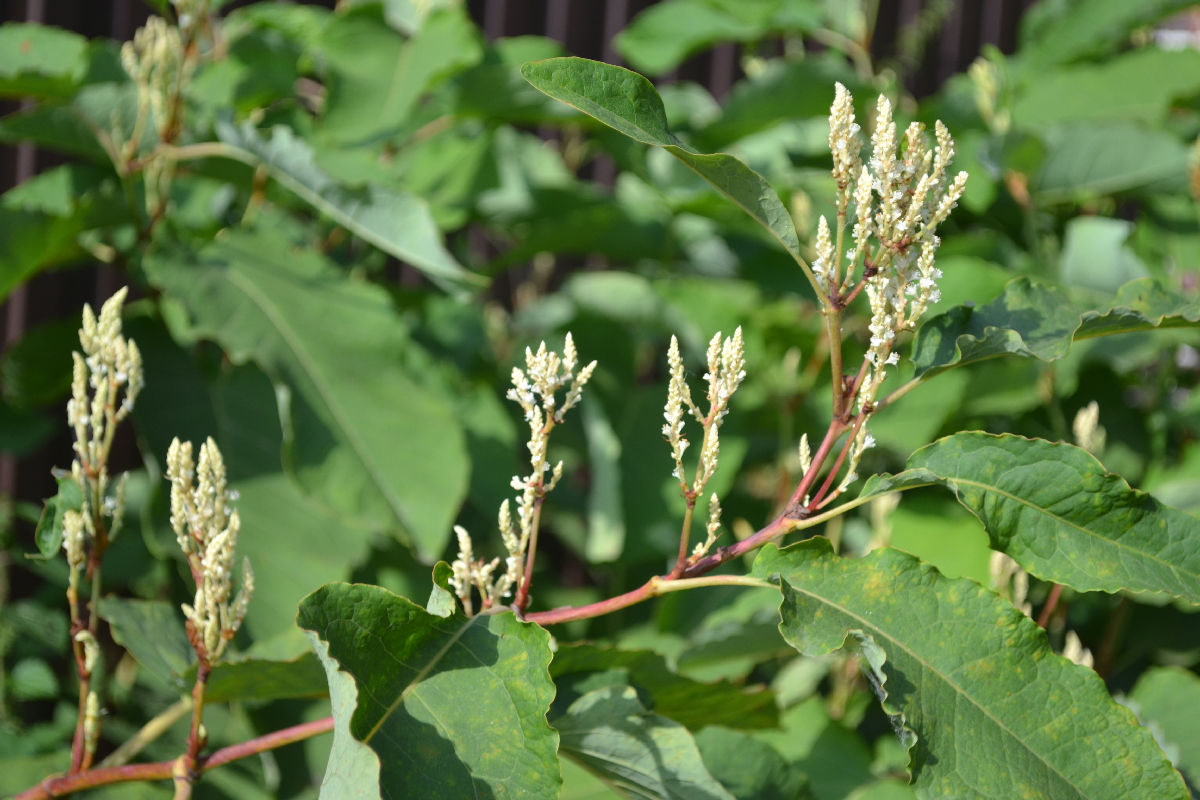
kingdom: Plantae
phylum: Tracheophyta
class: Magnoliopsida
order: Caryophyllales
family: Polygonaceae
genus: Reynoutria
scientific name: Reynoutria sachalinensis
